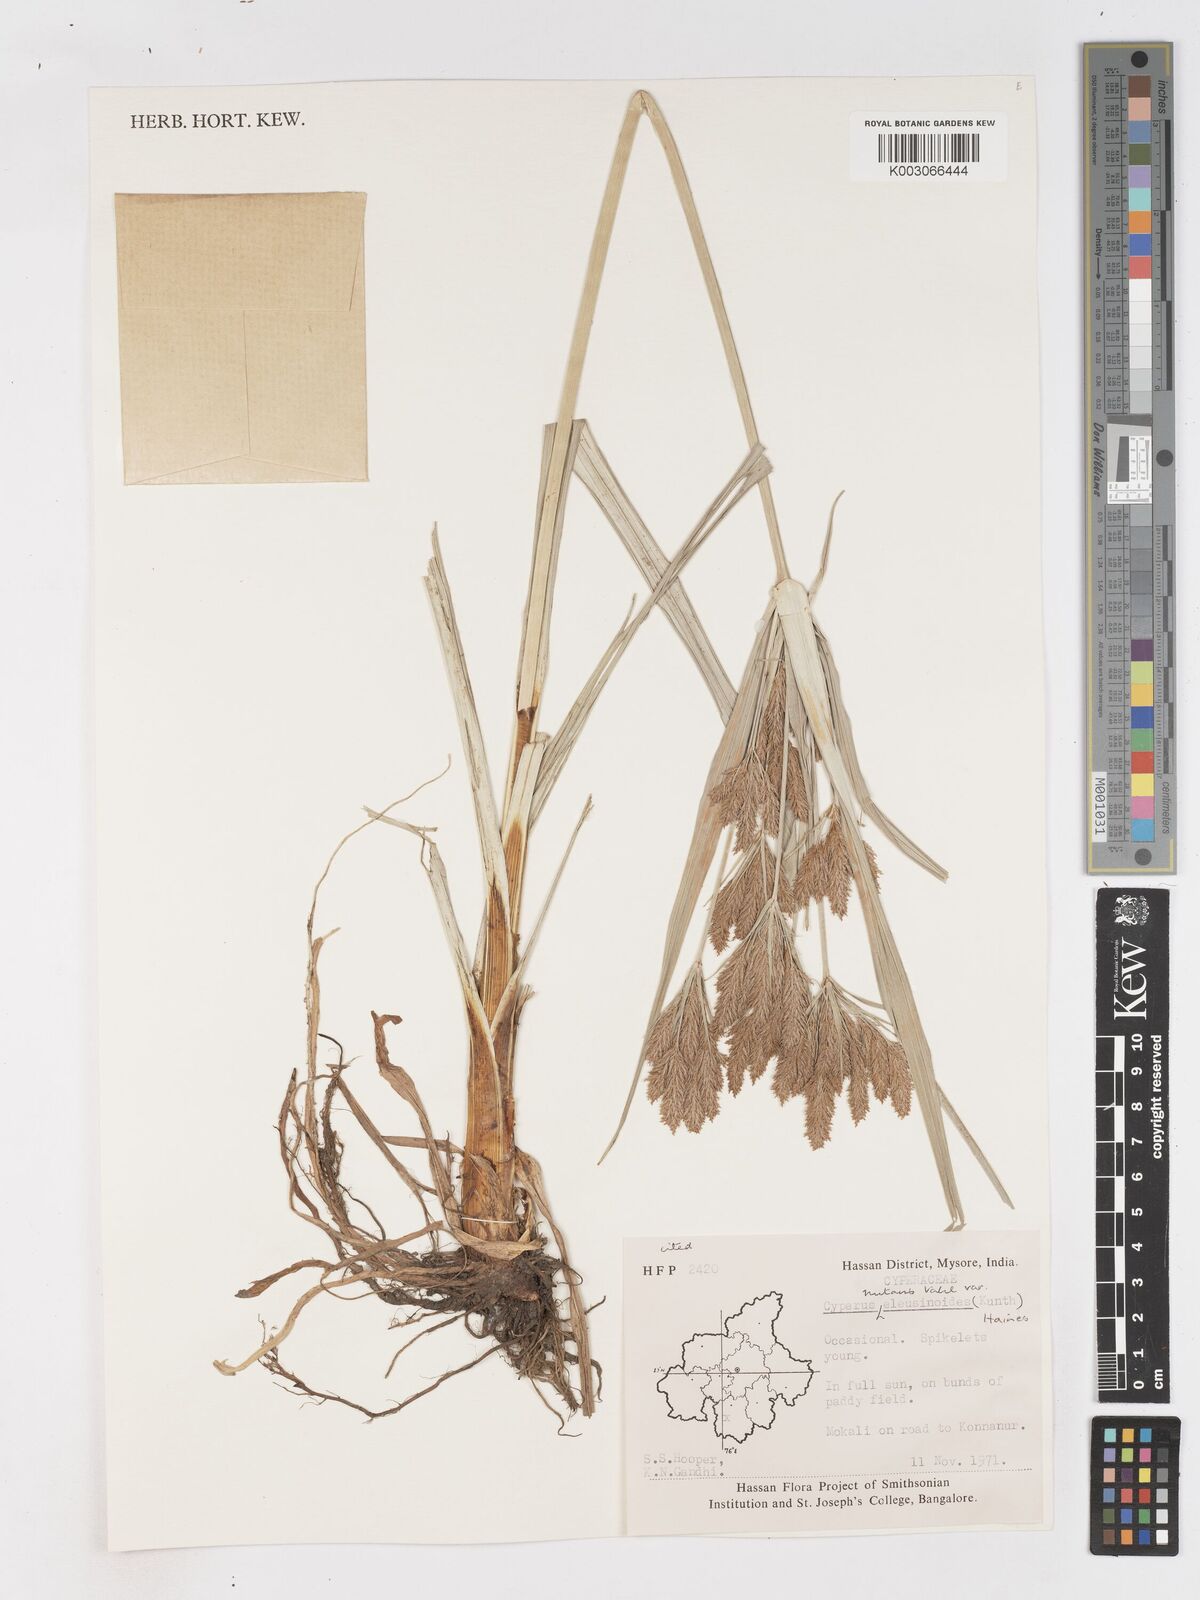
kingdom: Plantae
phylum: Tracheophyta
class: Liliopsida
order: Poales
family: Cyperaceae
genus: Cyperus
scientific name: Cyperus nutans
